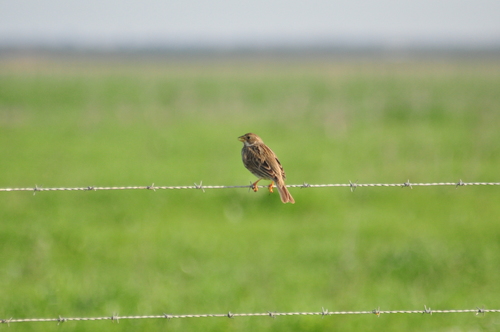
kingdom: Animalia
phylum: Chordata
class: Aves
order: Passeriformes
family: Emberizidae
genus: Emberiza
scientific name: Emberiza calandra
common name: Corn bunting
